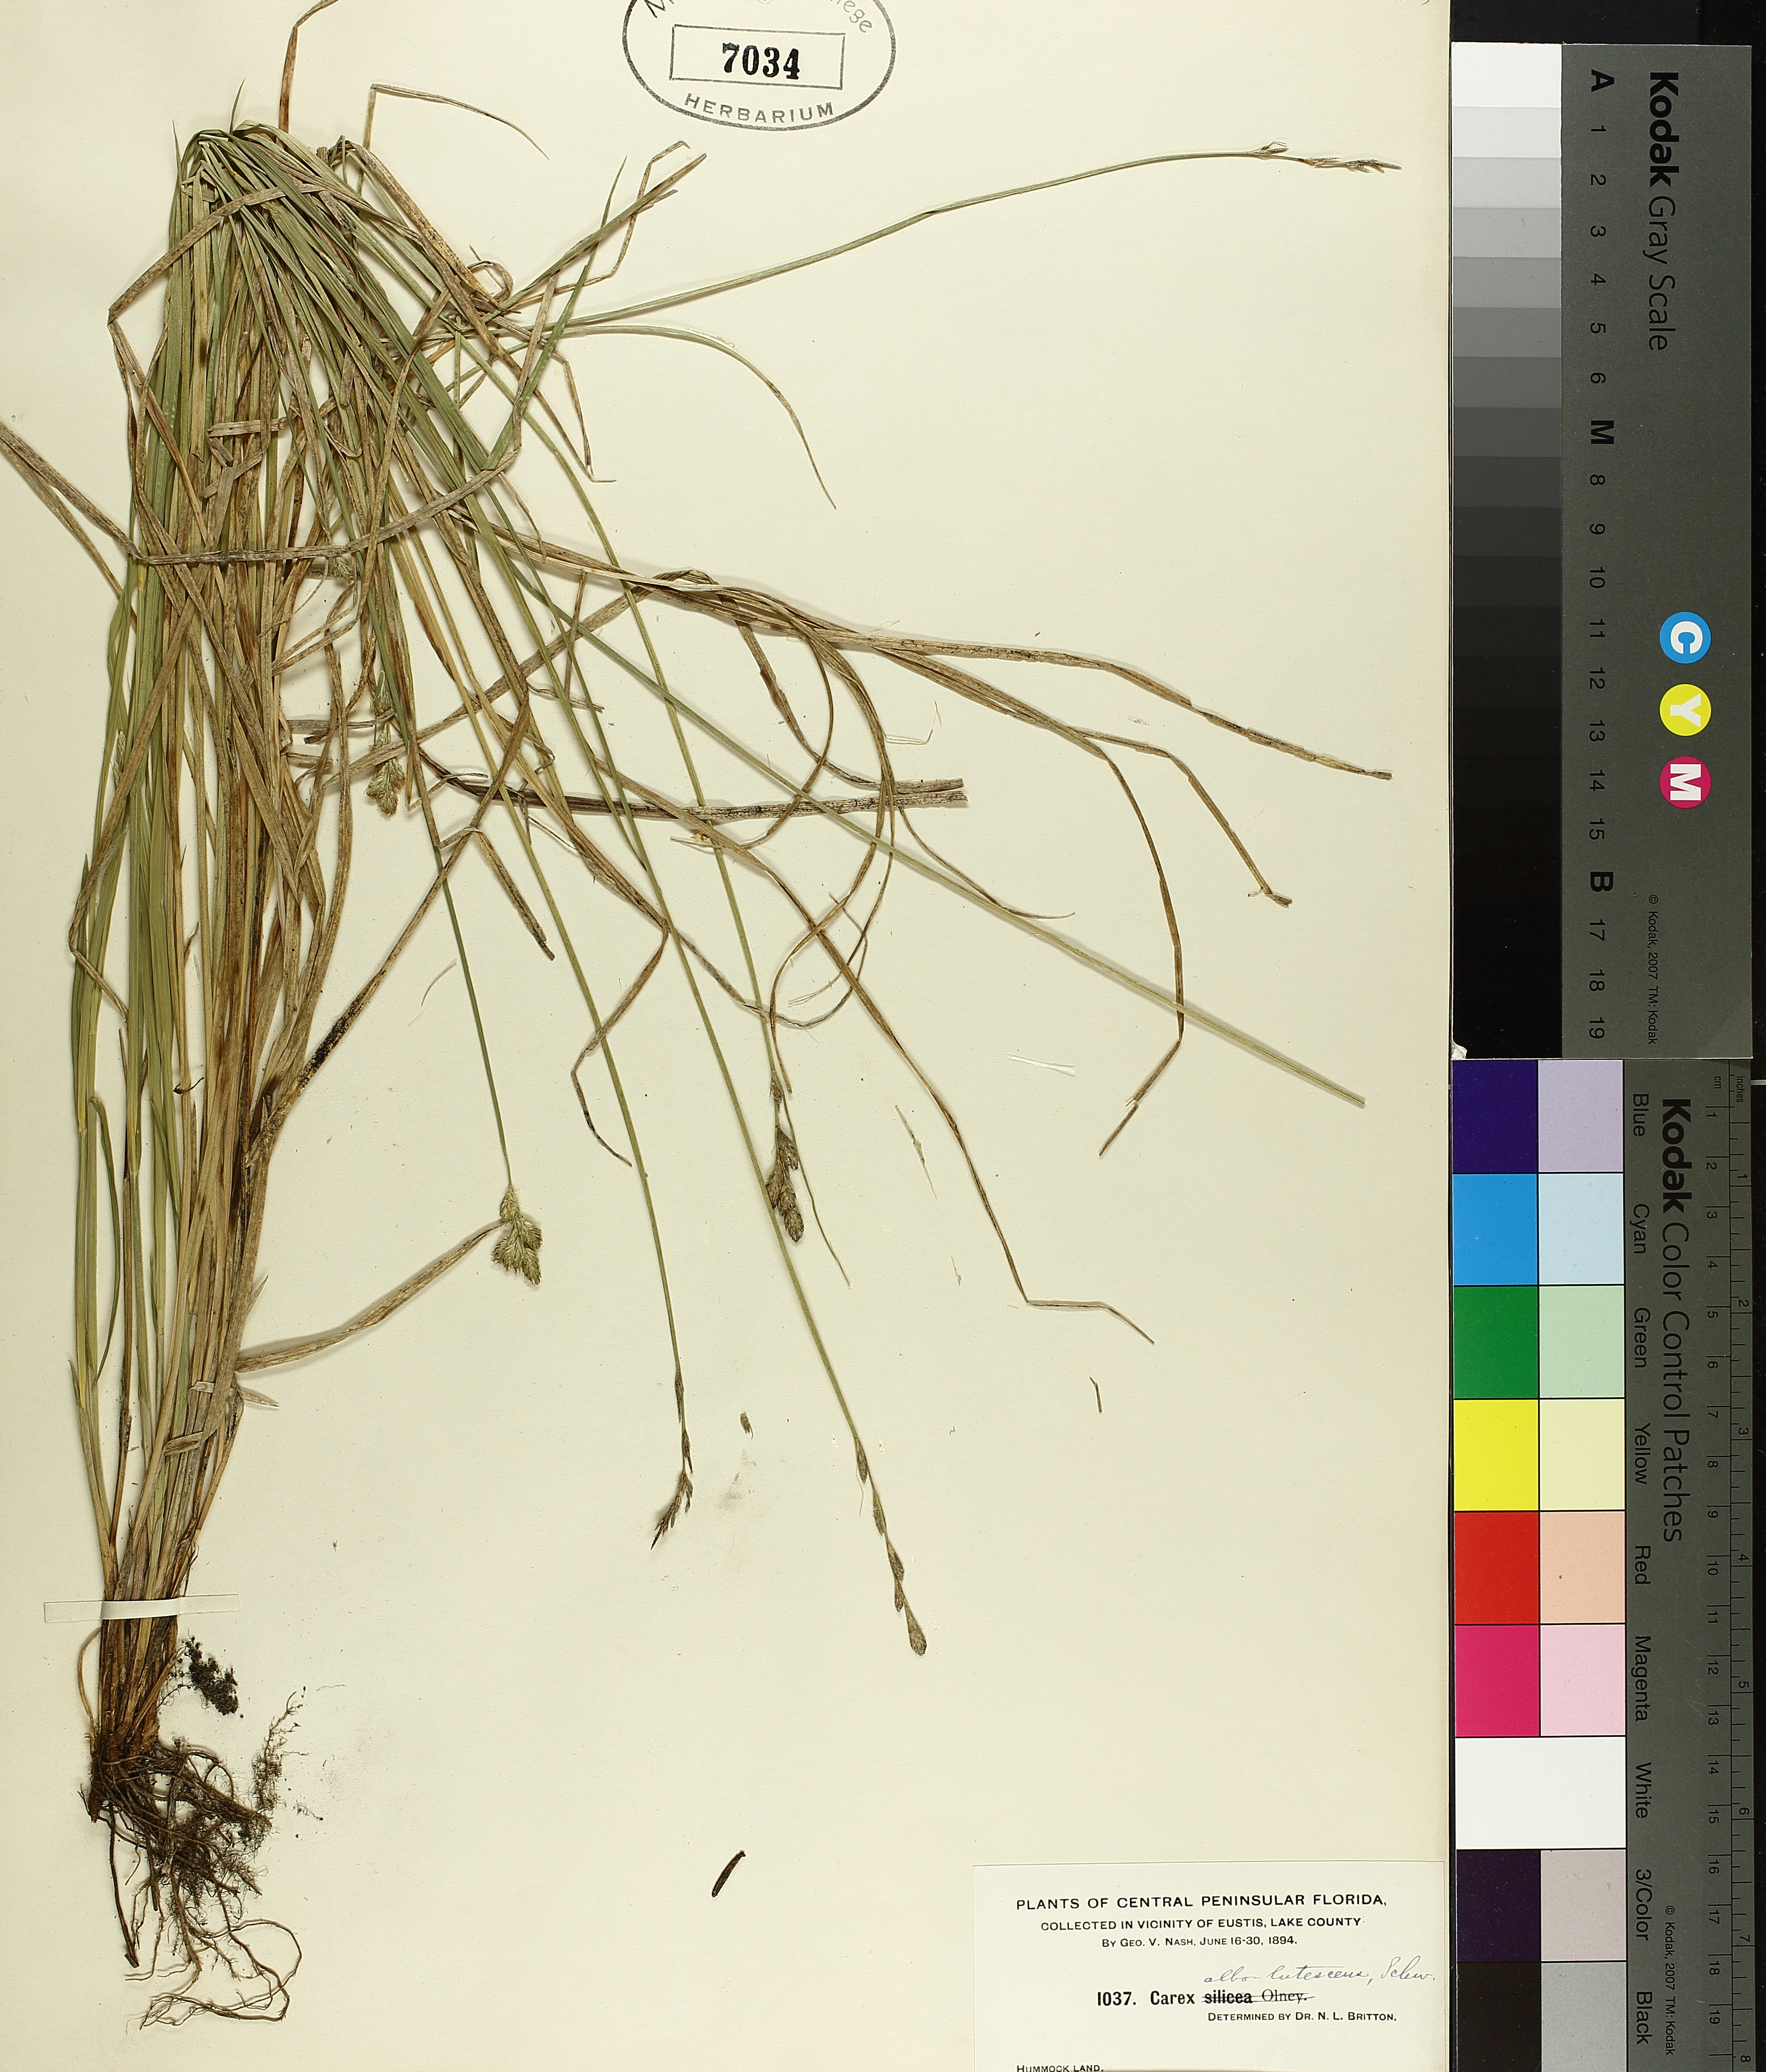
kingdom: Plantae
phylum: Tracheophyta
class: Liliopsida
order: Poales
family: Cyperaceae
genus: Carex
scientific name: Carex albolutescens
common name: Freenish white sedge
